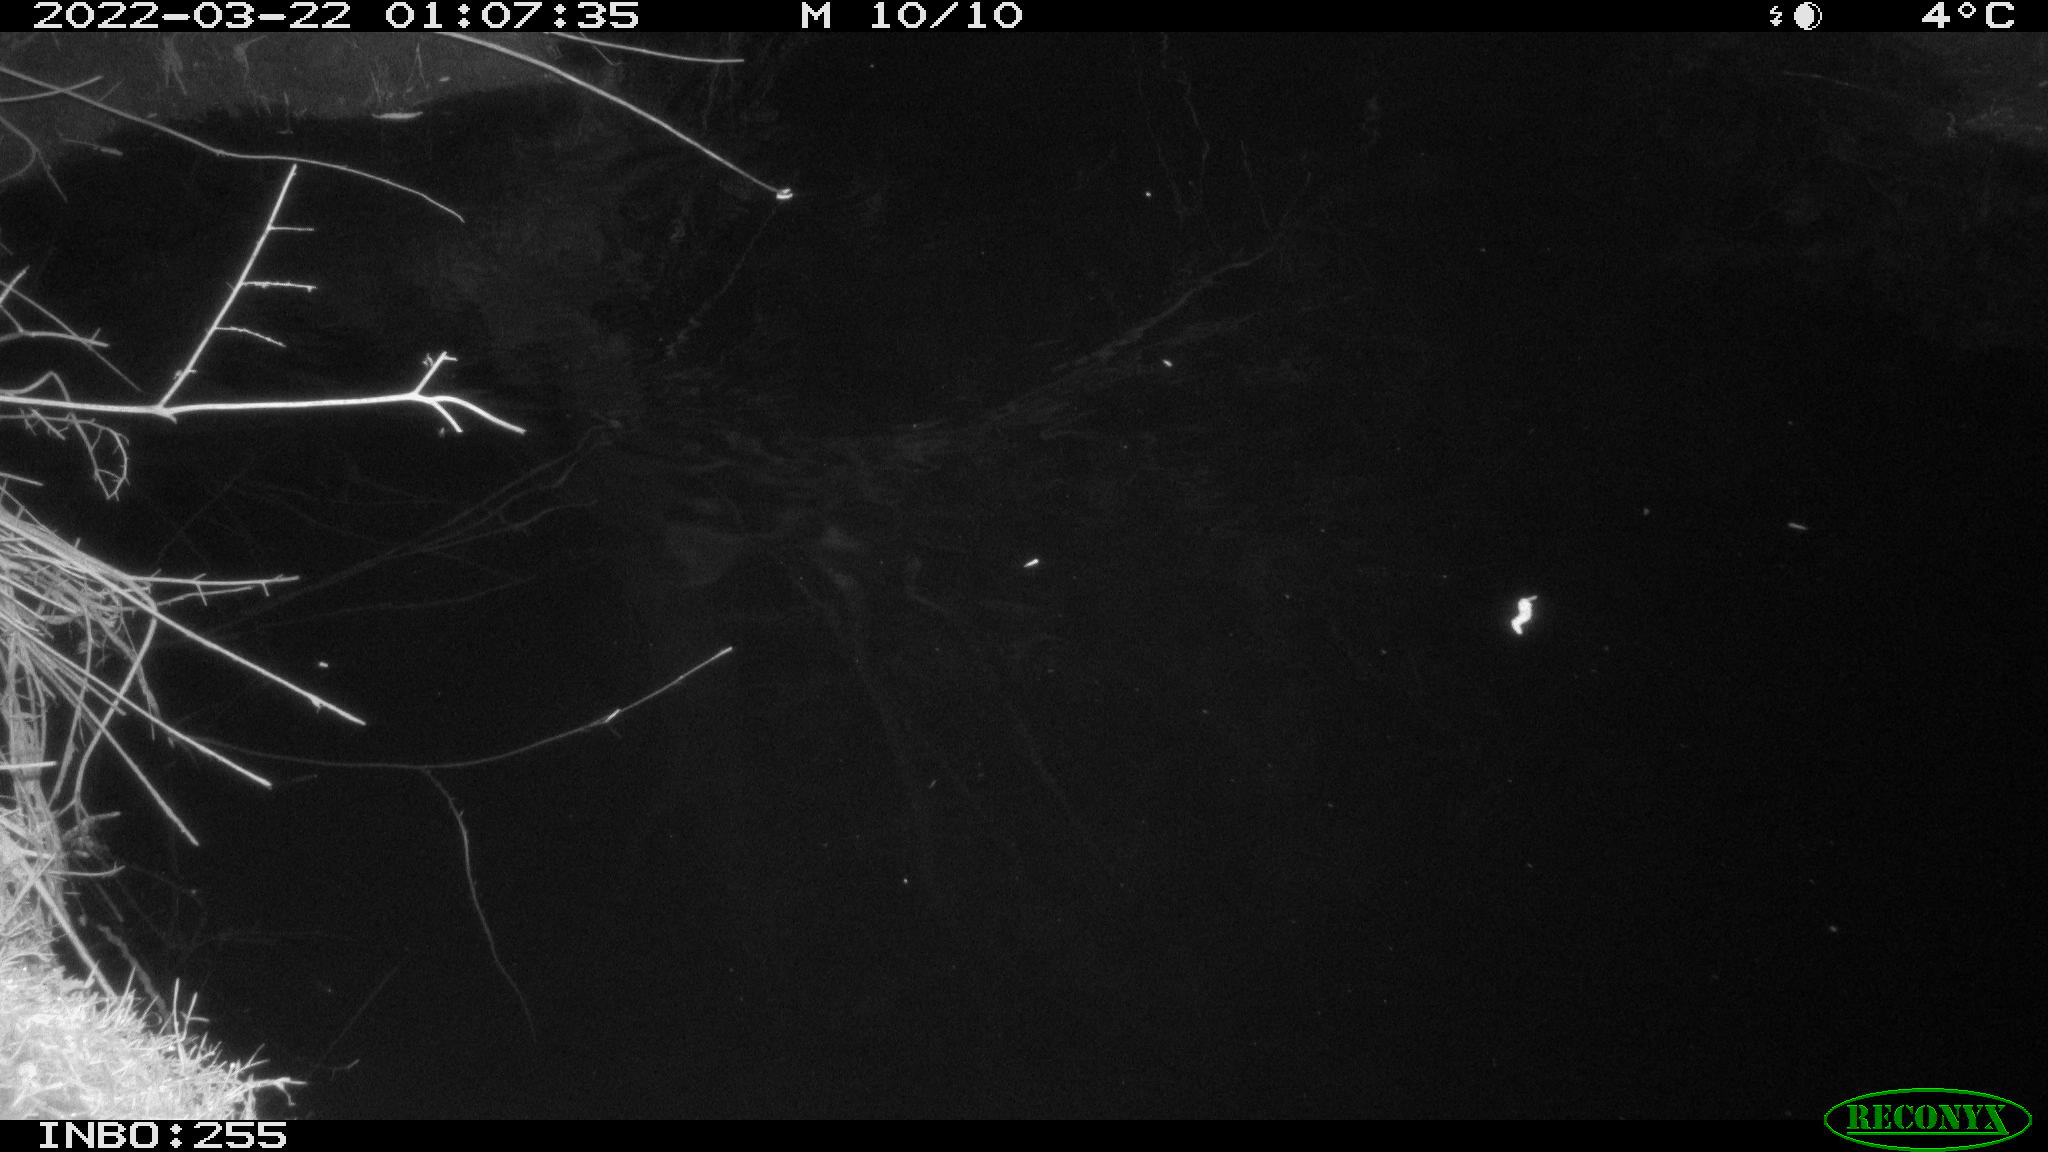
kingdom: Animalia
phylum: Chordata
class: Mammalia
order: Rodentia
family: Muridae
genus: Rattus
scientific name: Rattus norvegicus
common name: Brown rat
